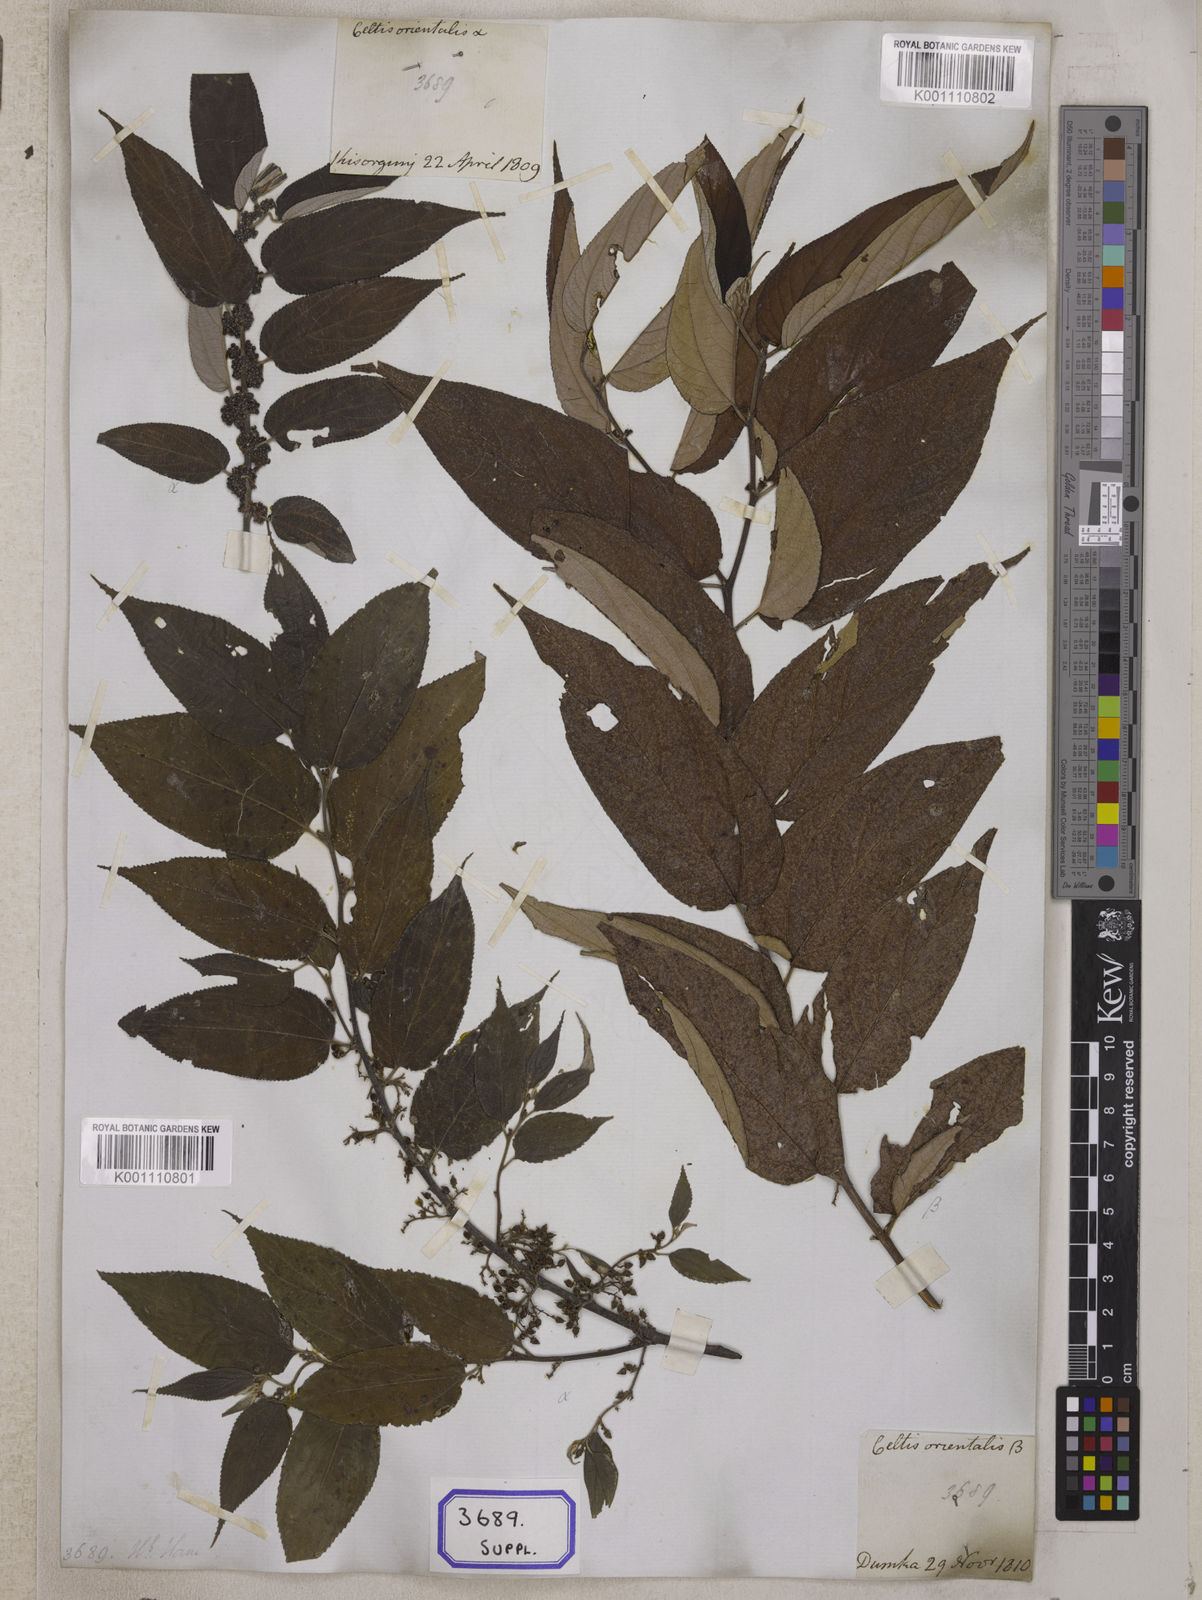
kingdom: Plantae
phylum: Tracheophyta
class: Magnoliopsida
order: Rosales
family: Cannabaceae
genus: Trema
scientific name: Trema orientale
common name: Indian charcoal tree
